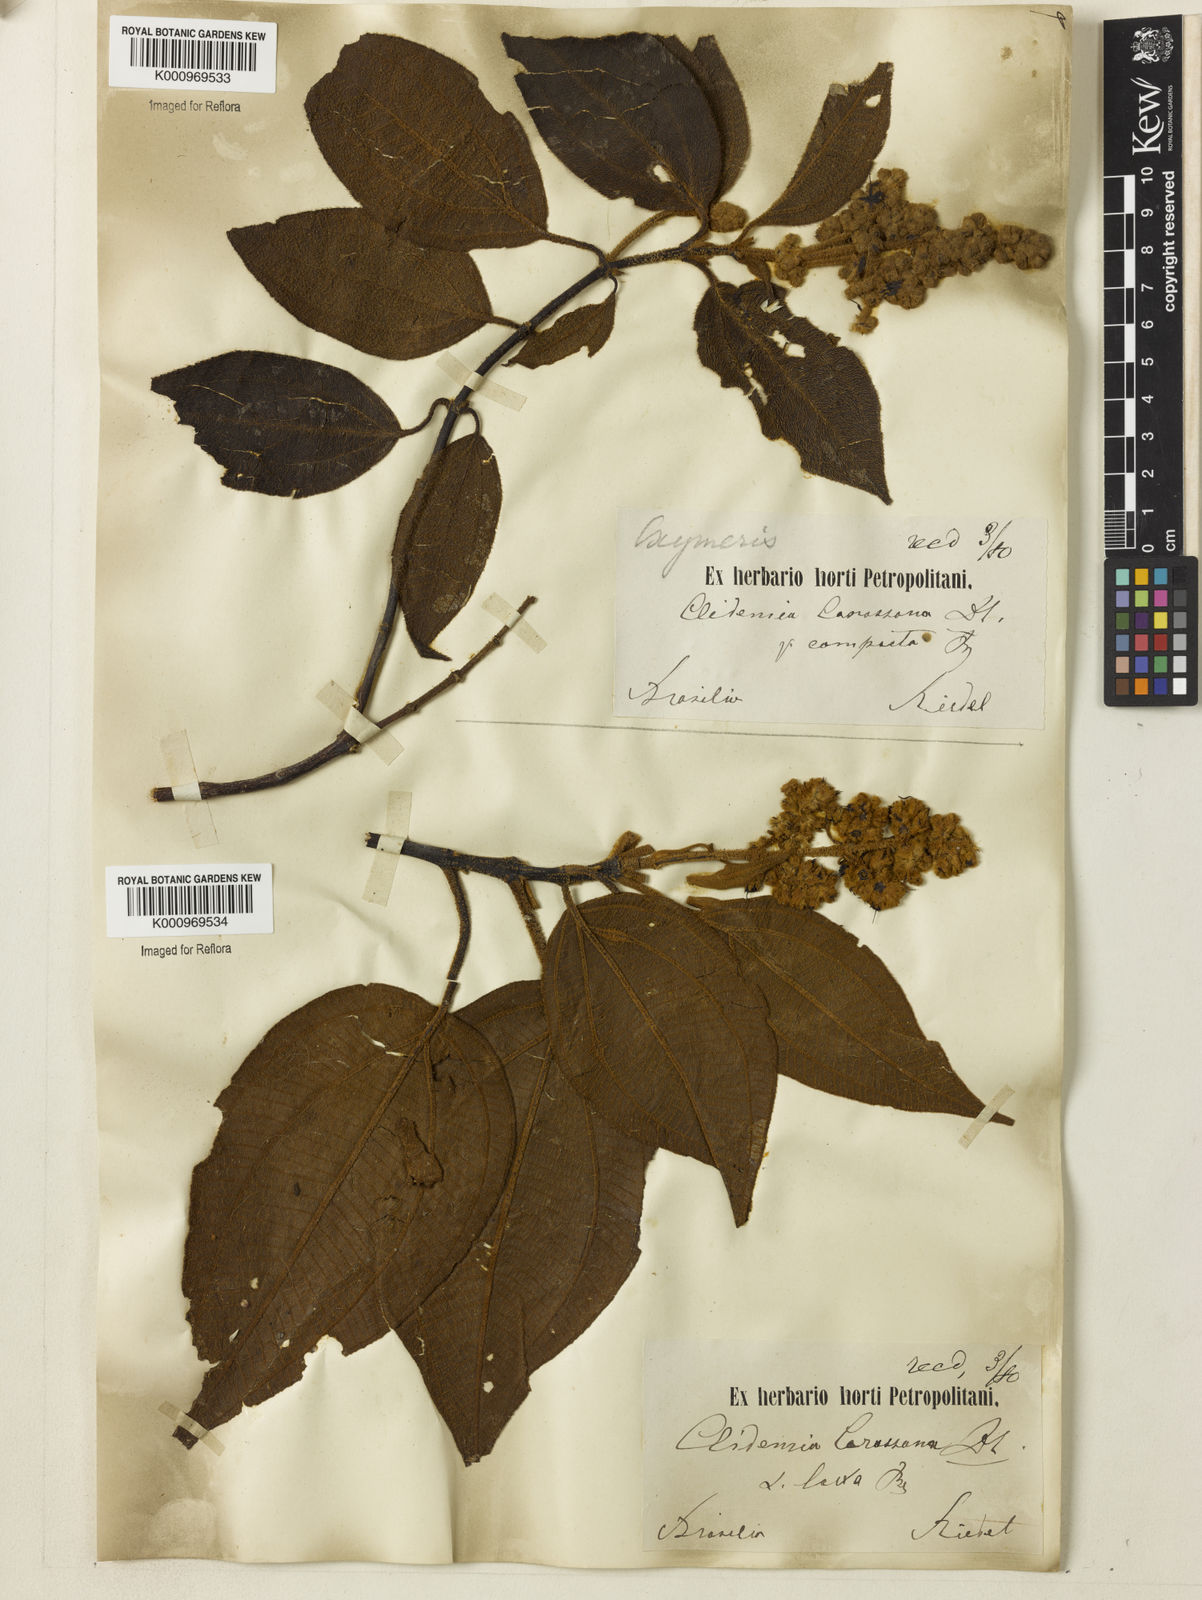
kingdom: Plantae
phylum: Tracheophyta
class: Magnoliopsida
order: Myrtales
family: Melastomataceae
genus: Miconia
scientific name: Miconia sublanata
